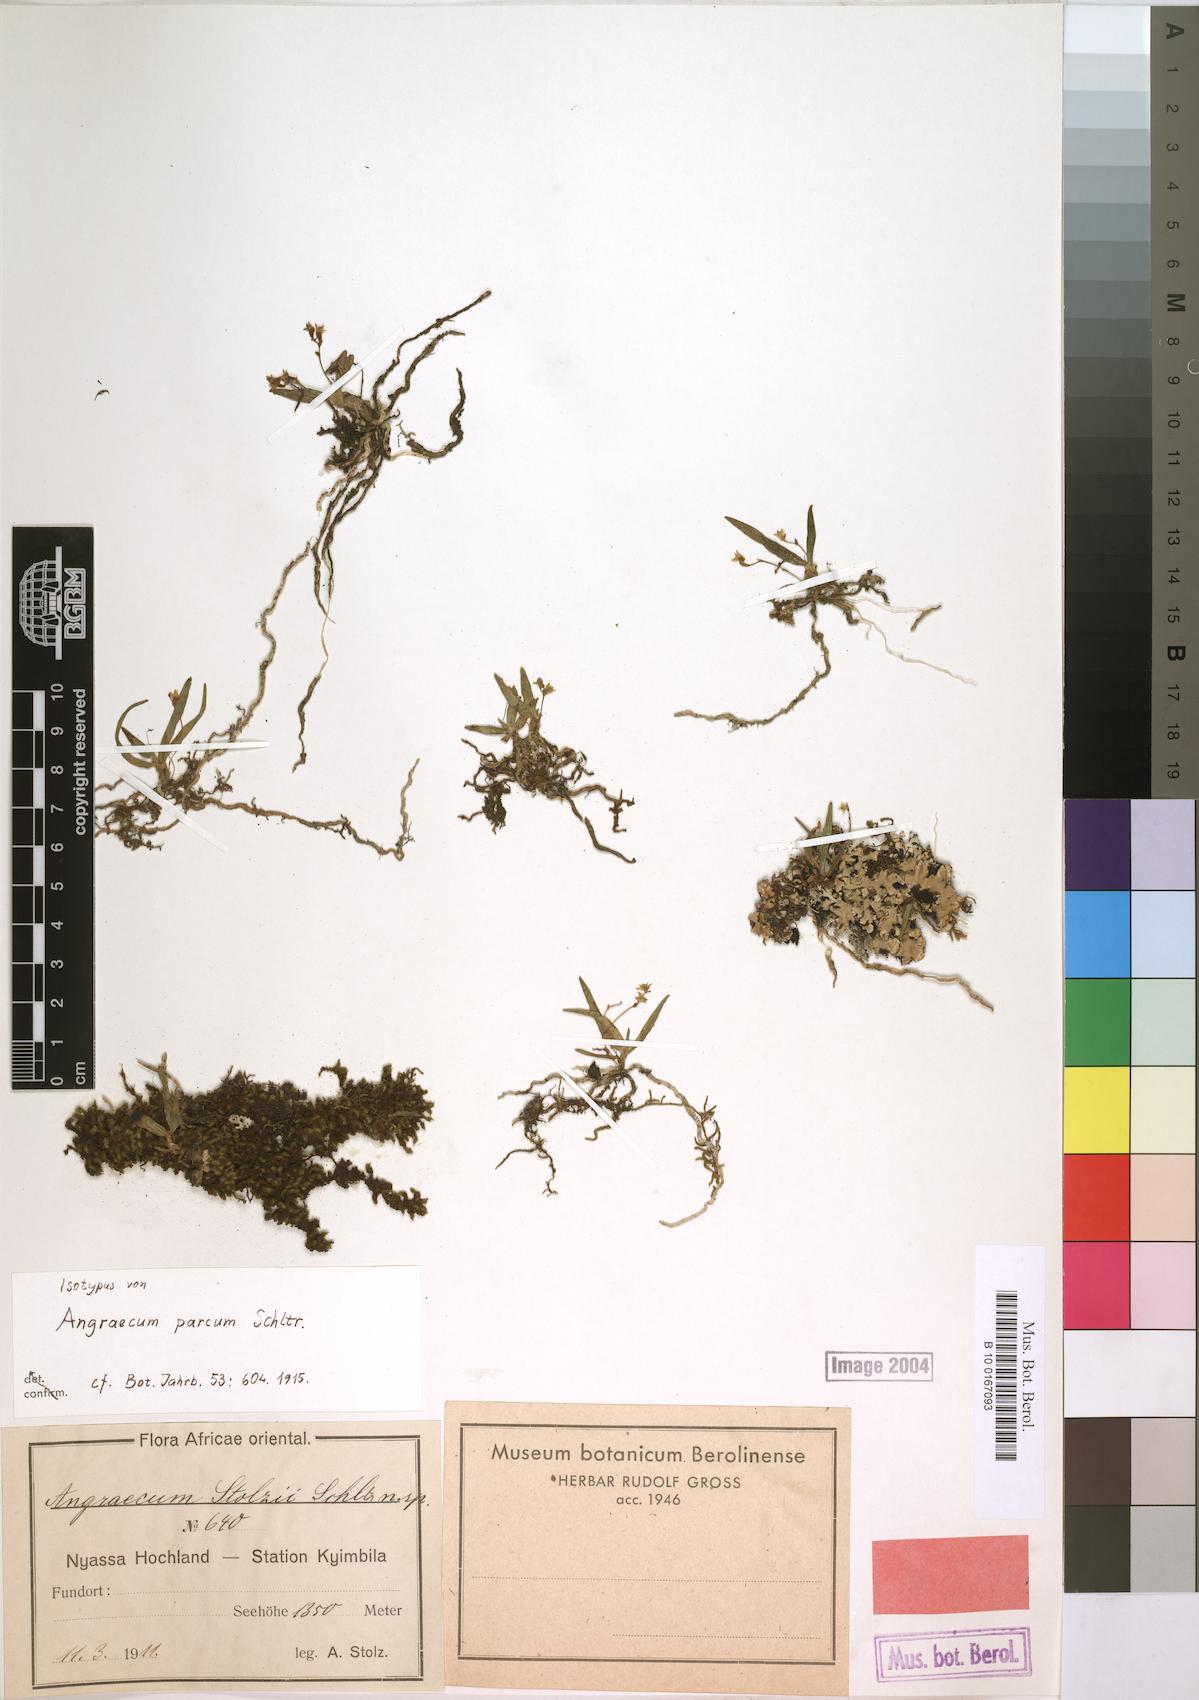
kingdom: Plantae
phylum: Tracheophyta
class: Liliopsida
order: Asparagales
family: Orchidaceae
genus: Angraecum
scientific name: Angraecum sacciferum
